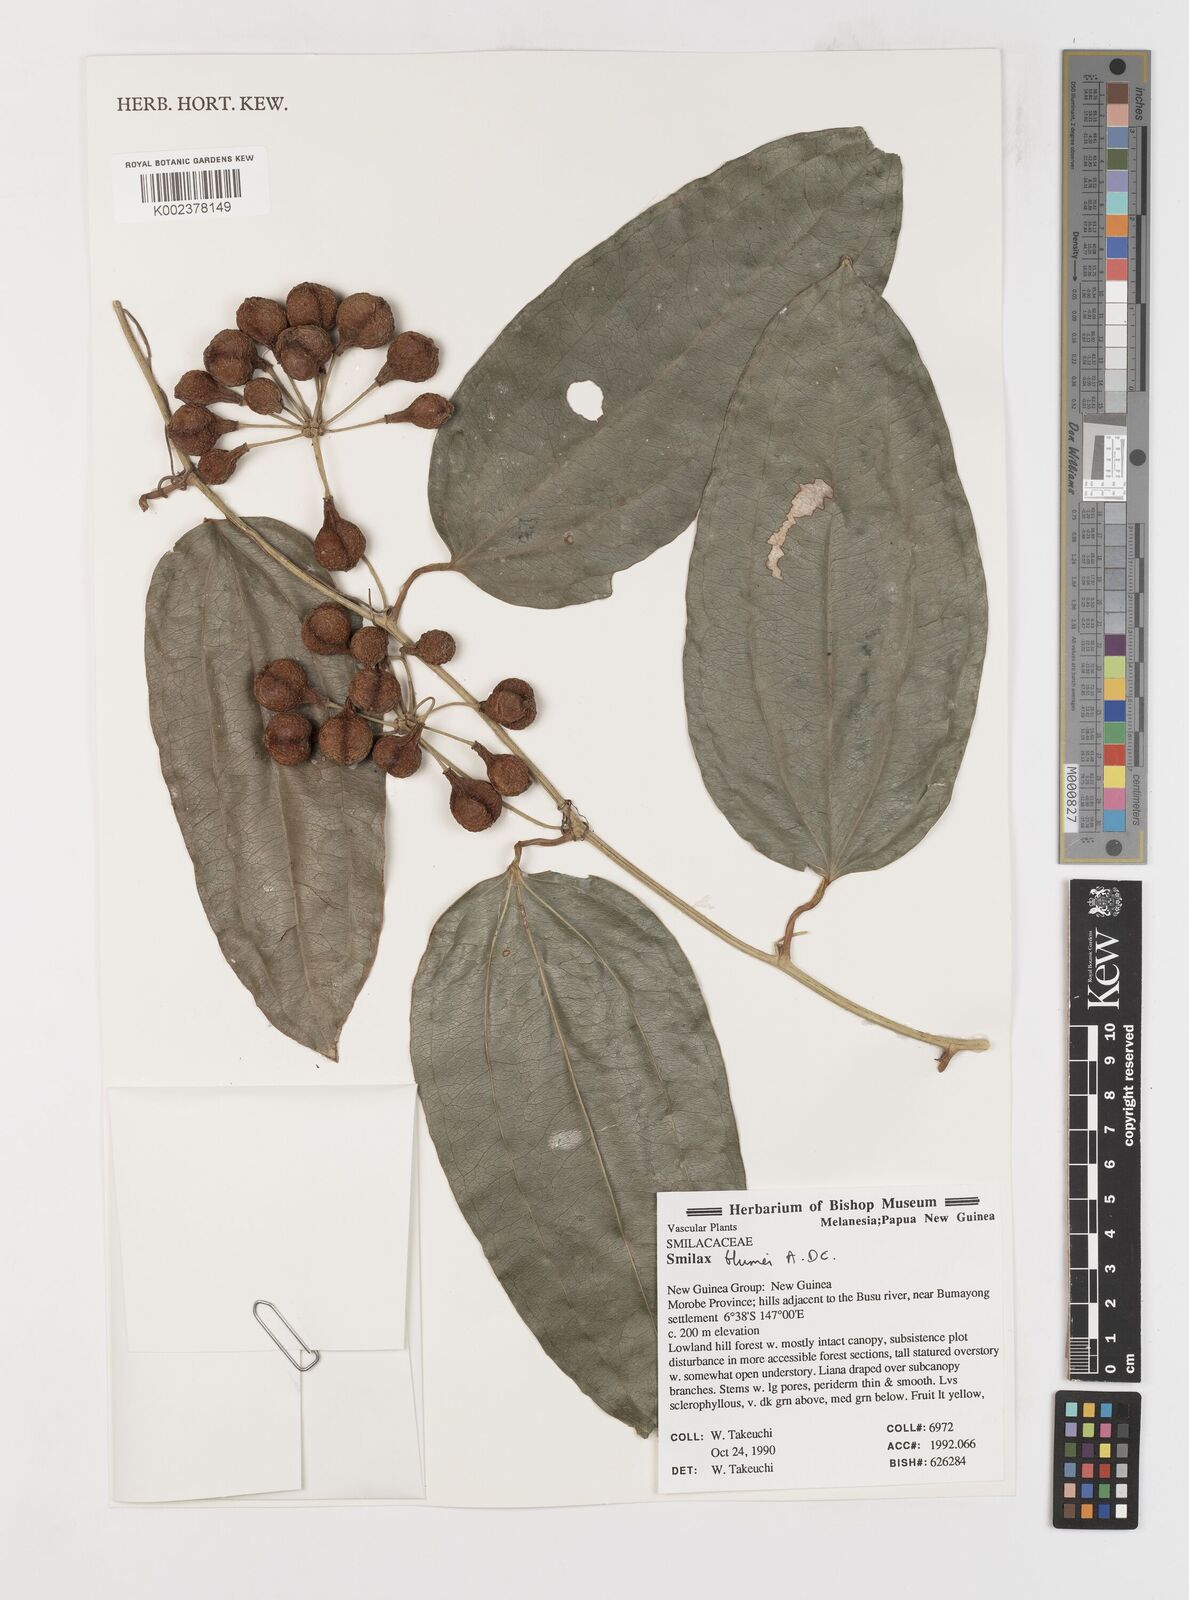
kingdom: Plantae
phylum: Tracheophyta
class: Liliopsida
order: Liliales
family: Smilacaceae
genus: Smilax
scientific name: Smilax blumei
